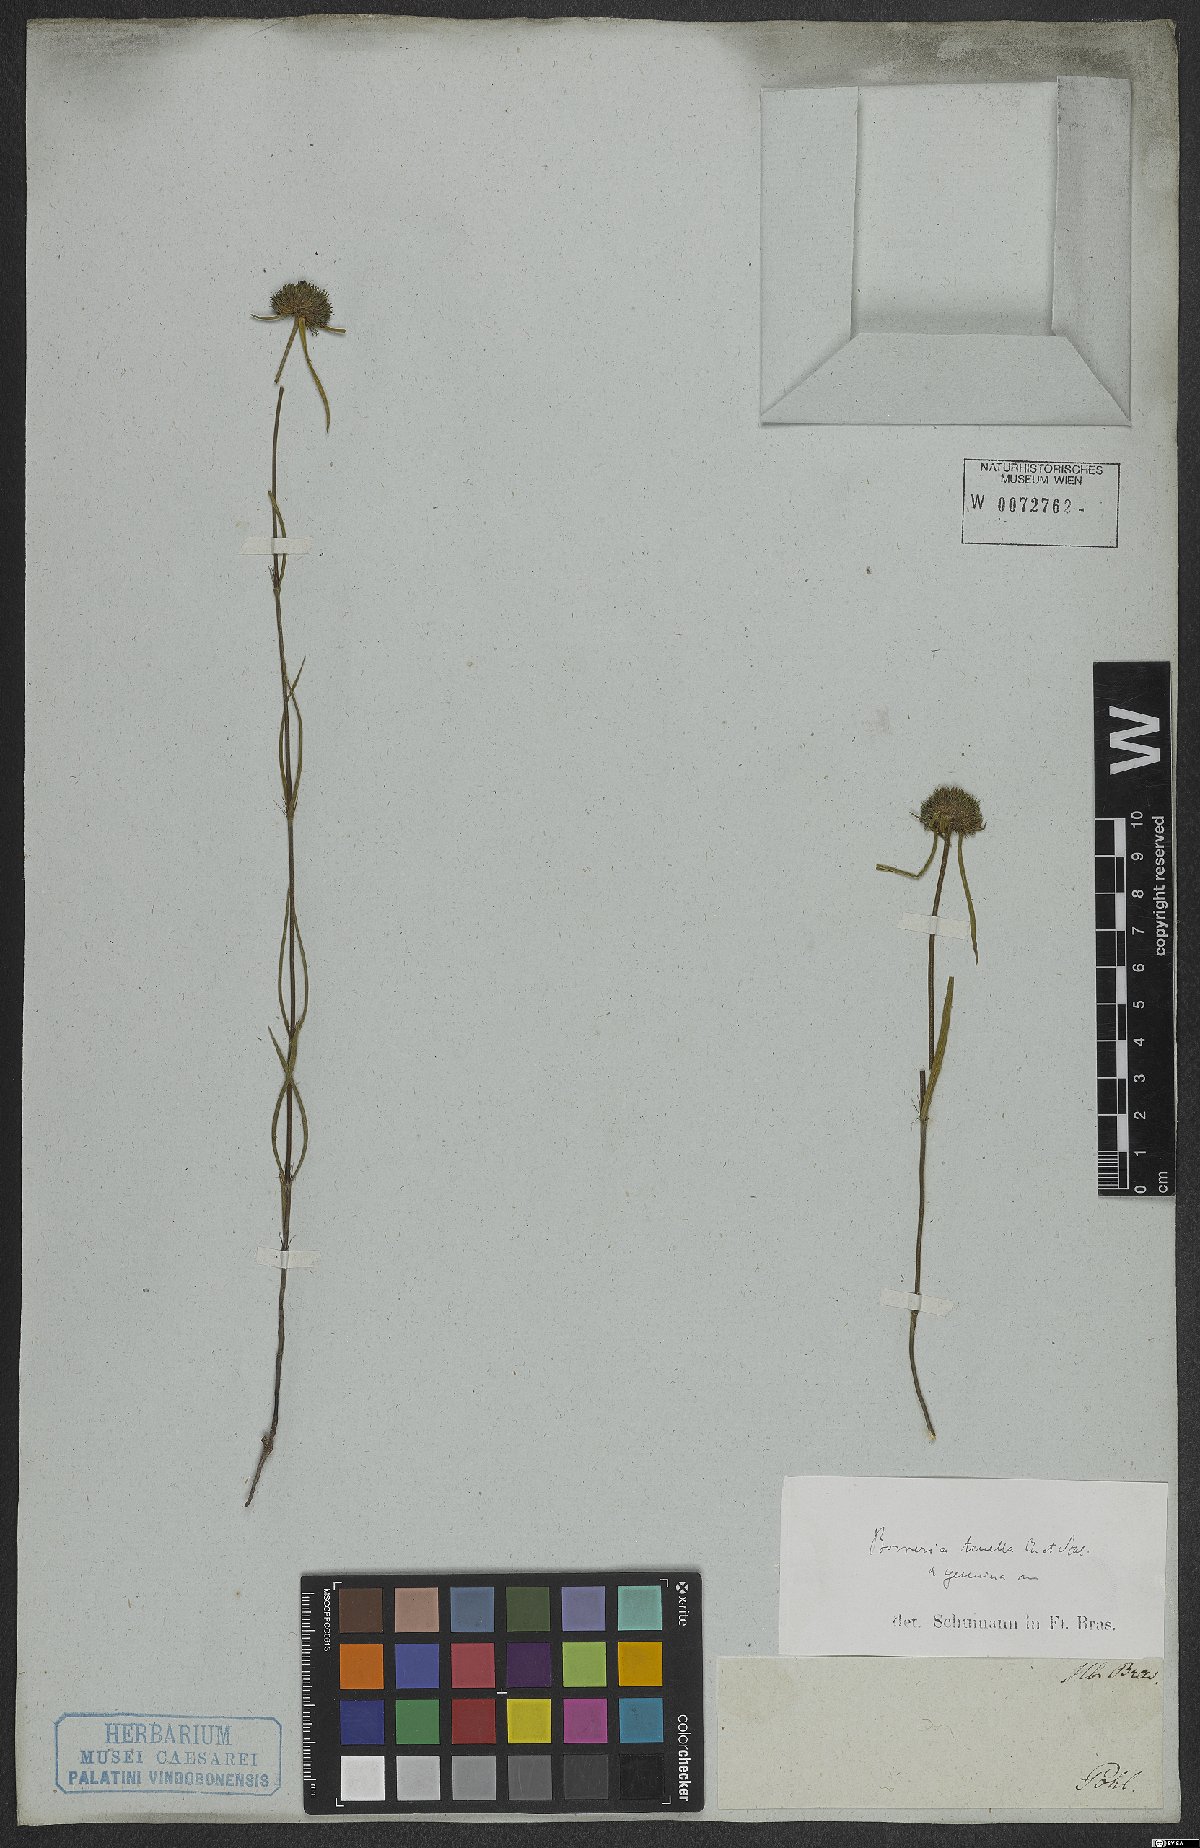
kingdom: Plantae
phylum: Tracheophyta
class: Magnoliopsida
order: Gentianales
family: Rubiaceae
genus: Spermacoce
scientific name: Spermacoce orinocensis
